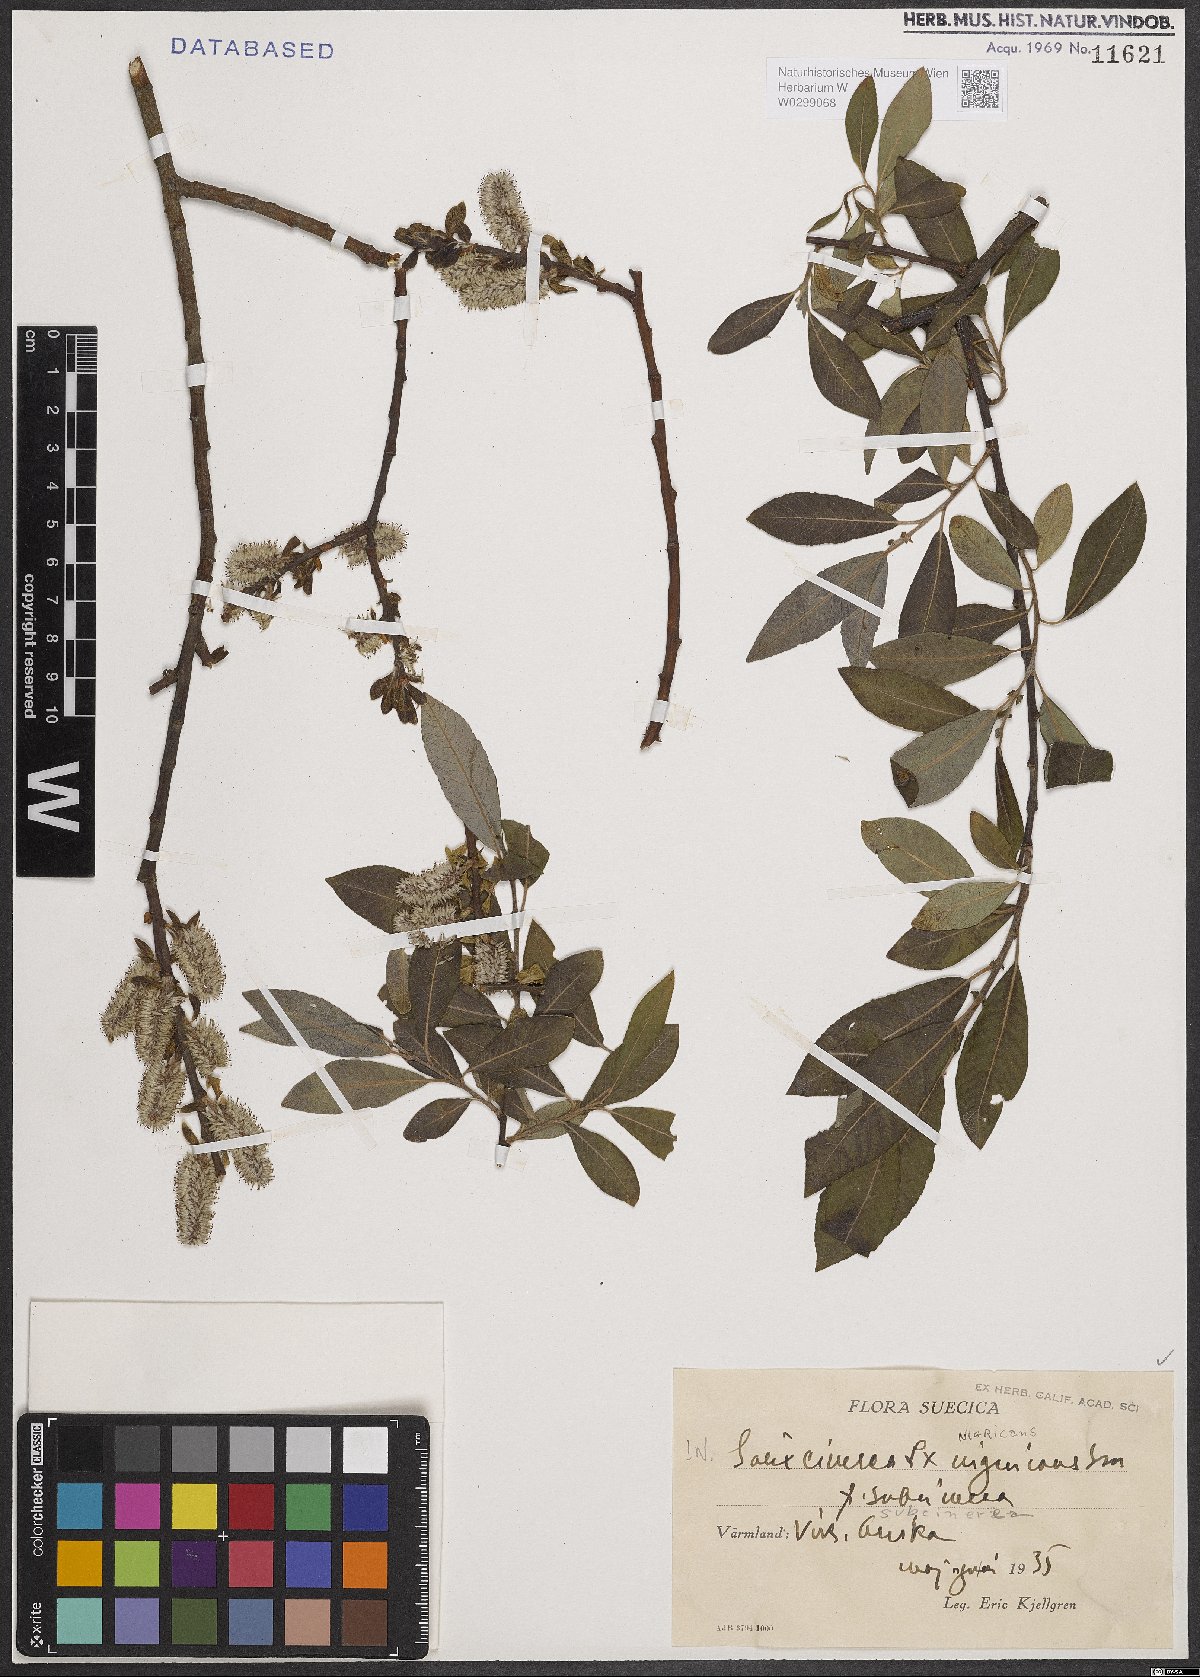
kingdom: Plantae
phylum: Tracheophyta
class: Magnoliopsida
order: Malpighiales
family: Salicaceae
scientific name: Salicaceae
